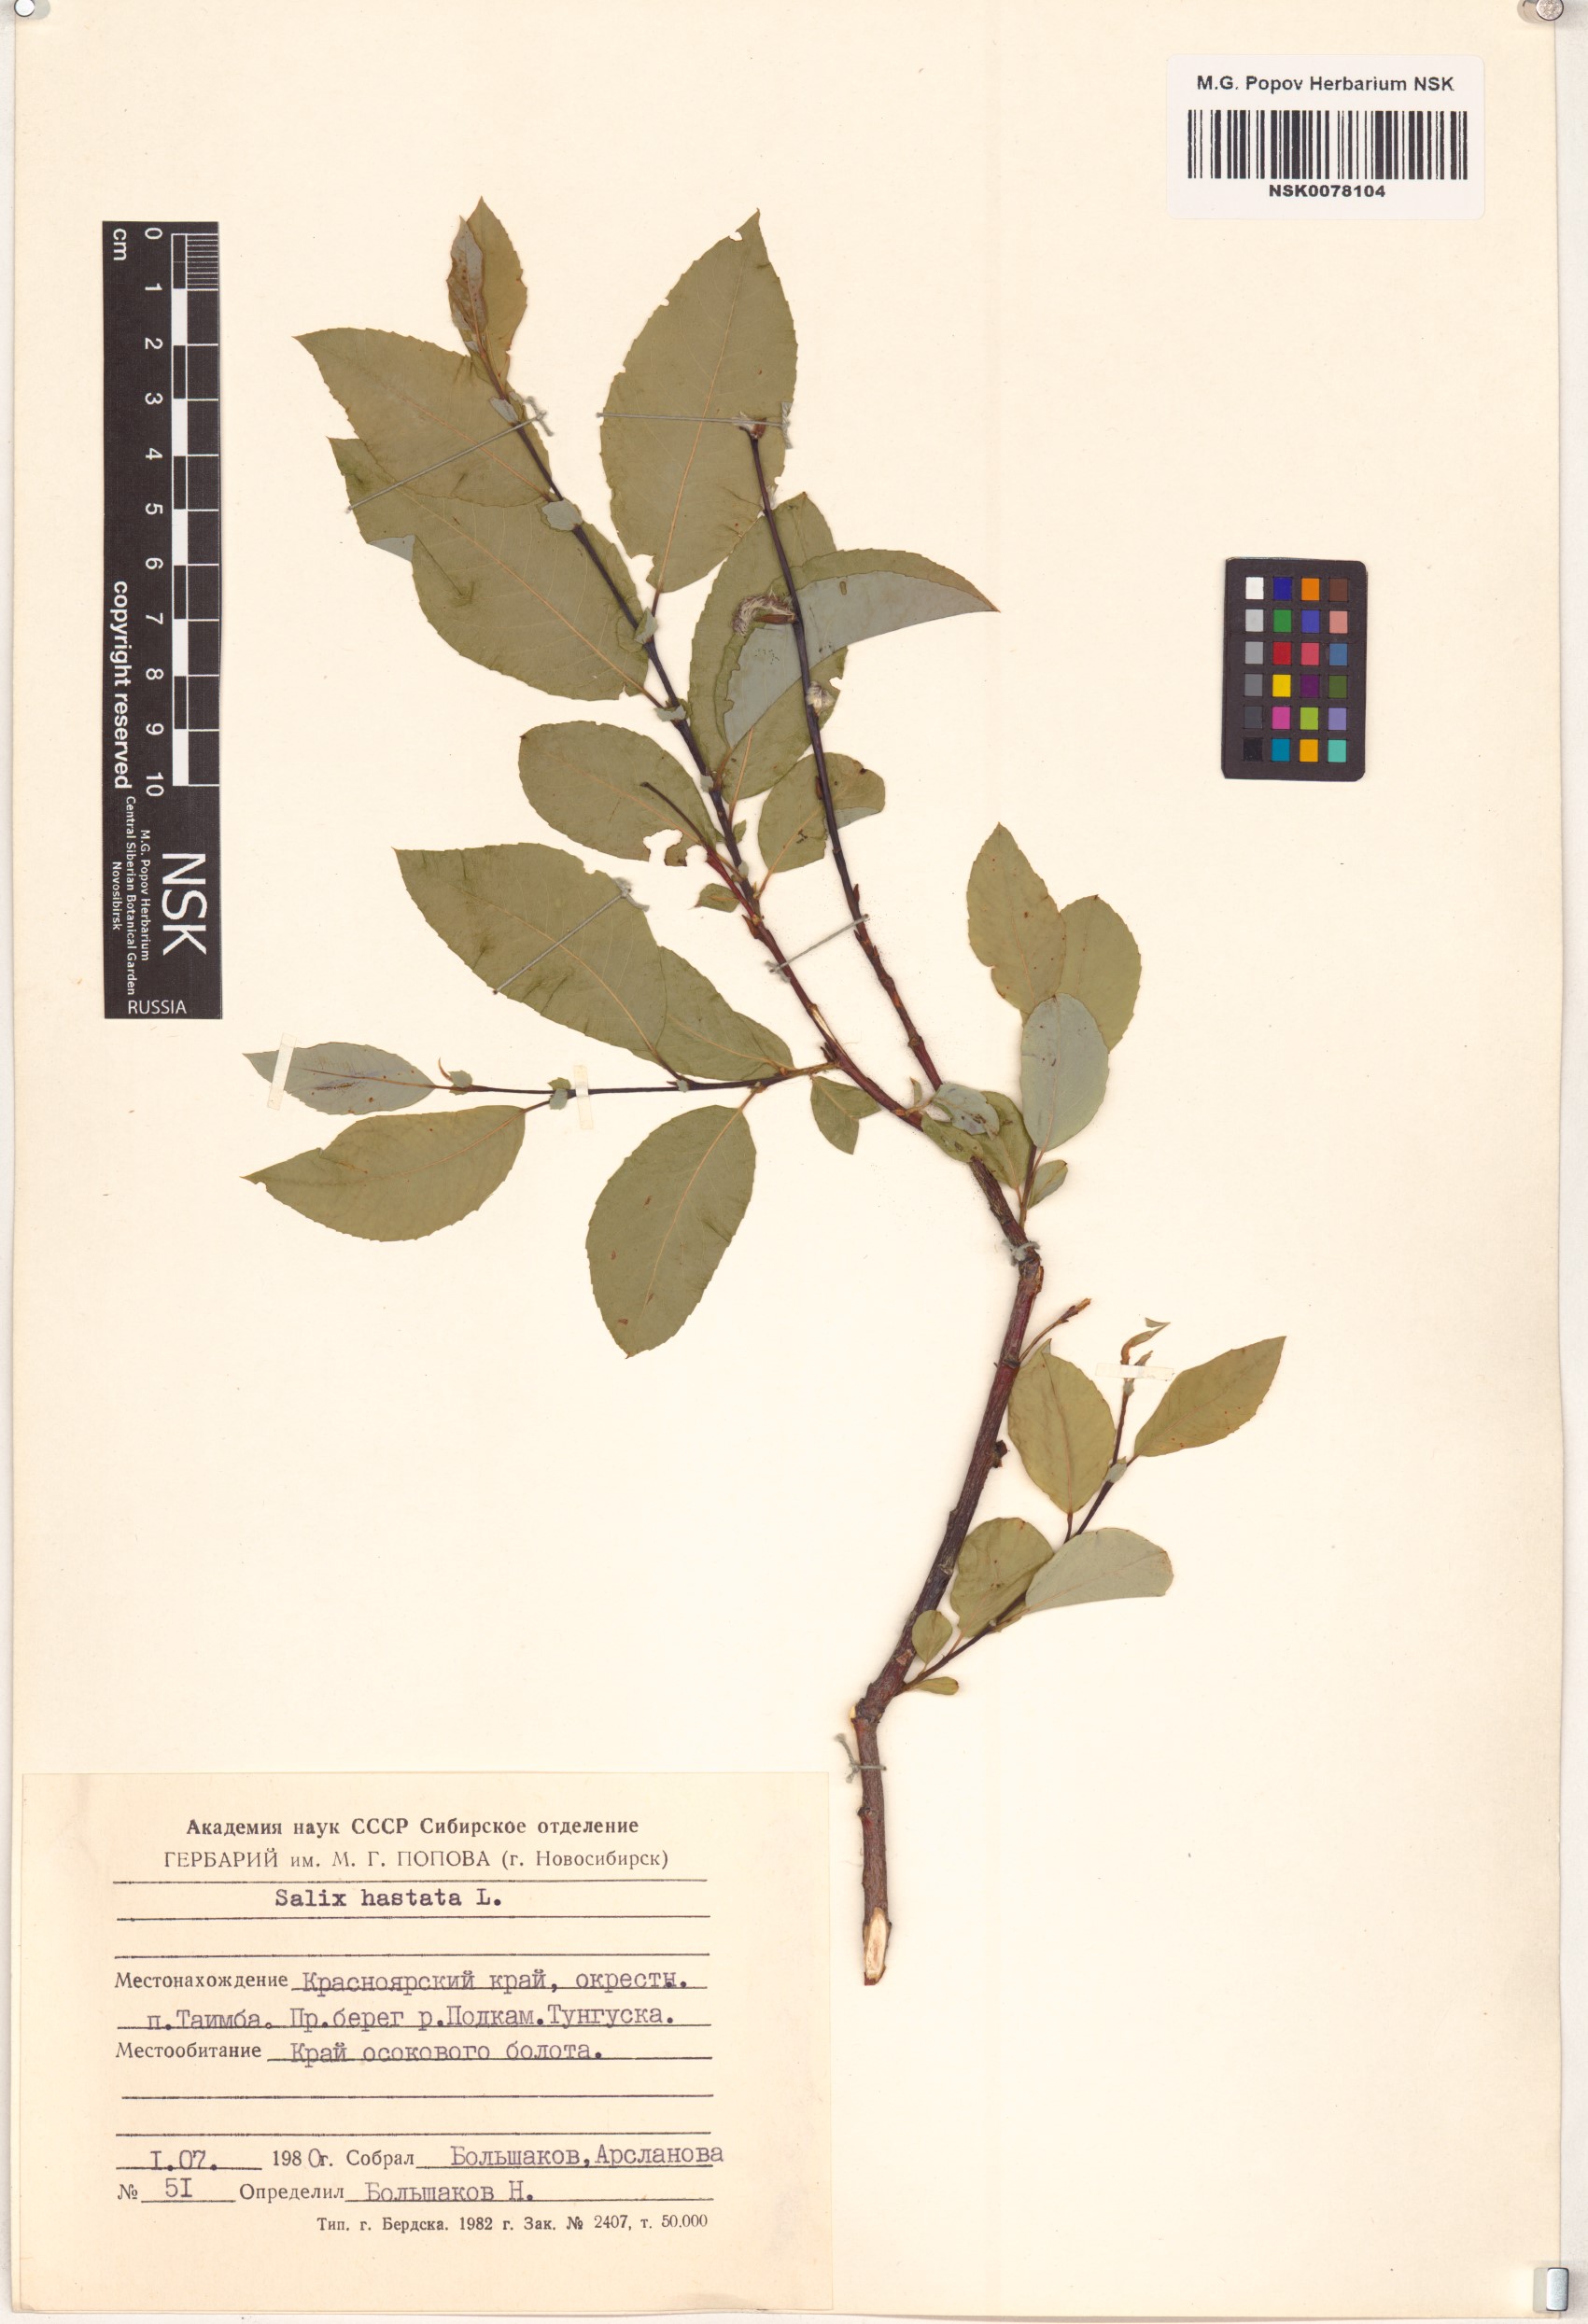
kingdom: Plantae
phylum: Tracheophyta
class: Magnoliopsida
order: Malpighiales
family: Salicaceae
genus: Salix
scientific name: Salix hastata
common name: Halberd willow
